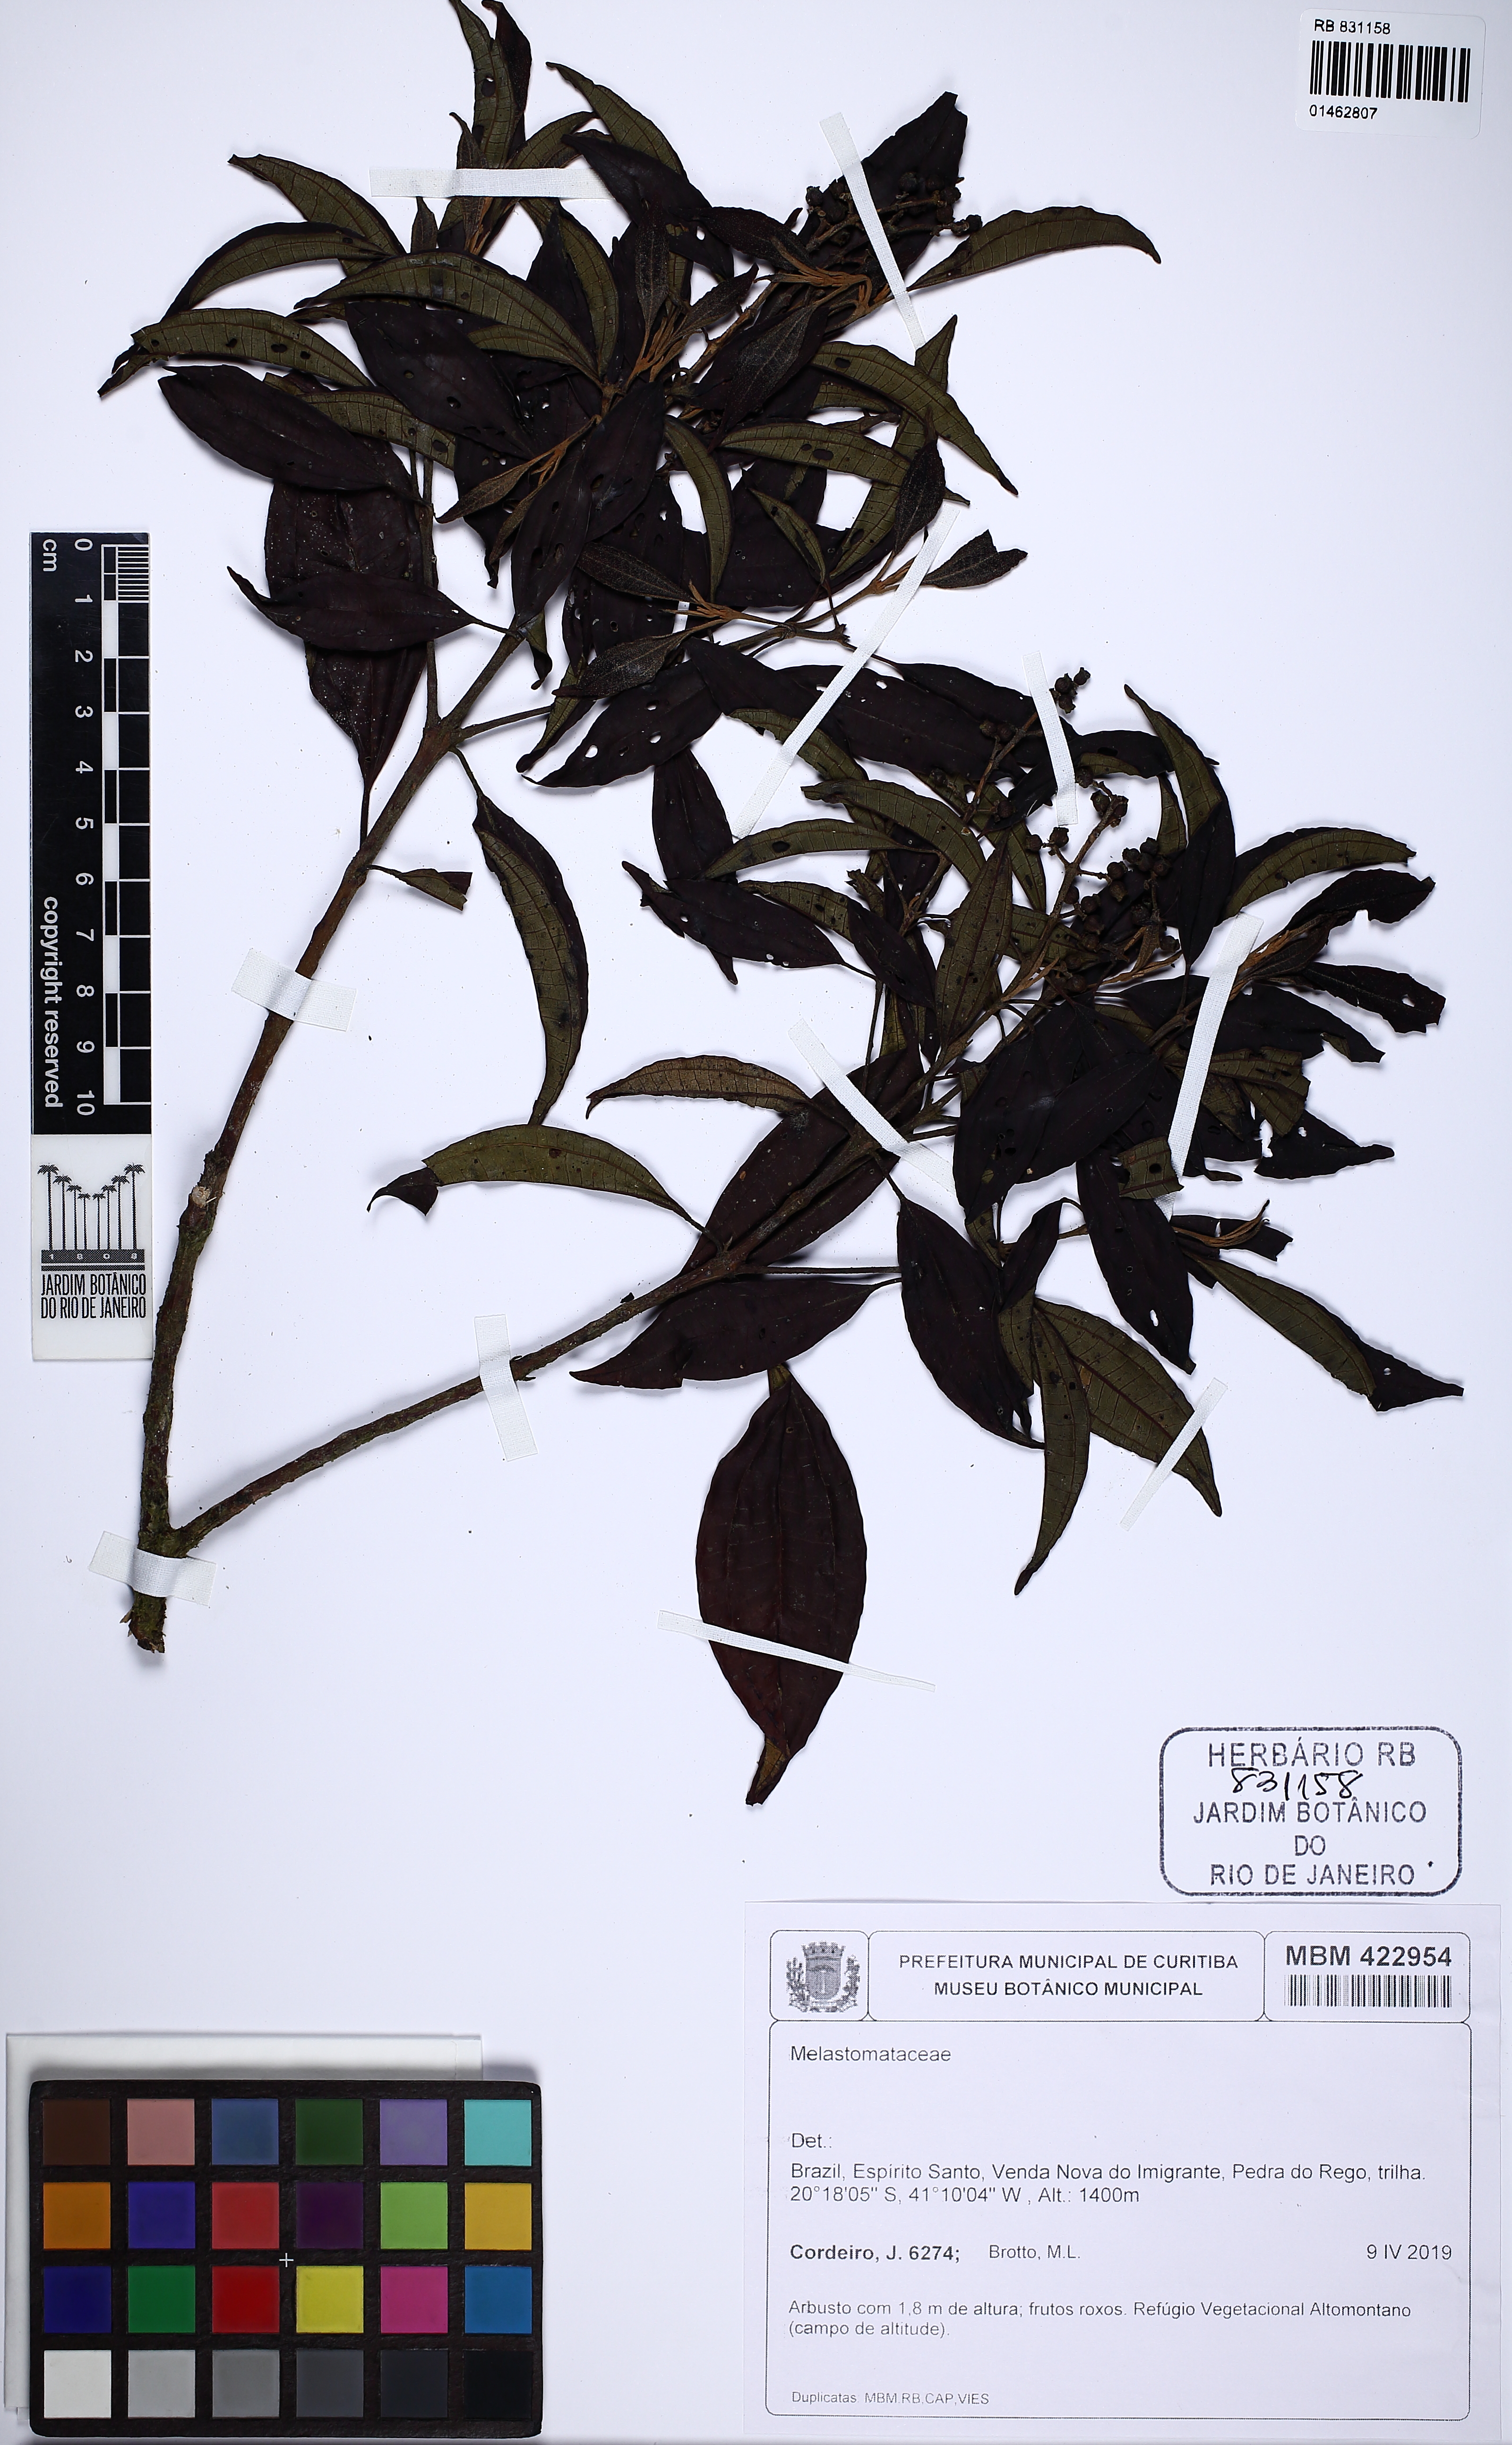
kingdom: Plantae
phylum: Tracheophyta
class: Magnoliopsida
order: Myrtales
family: Melastomataceae
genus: Miconia
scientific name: Miconia
